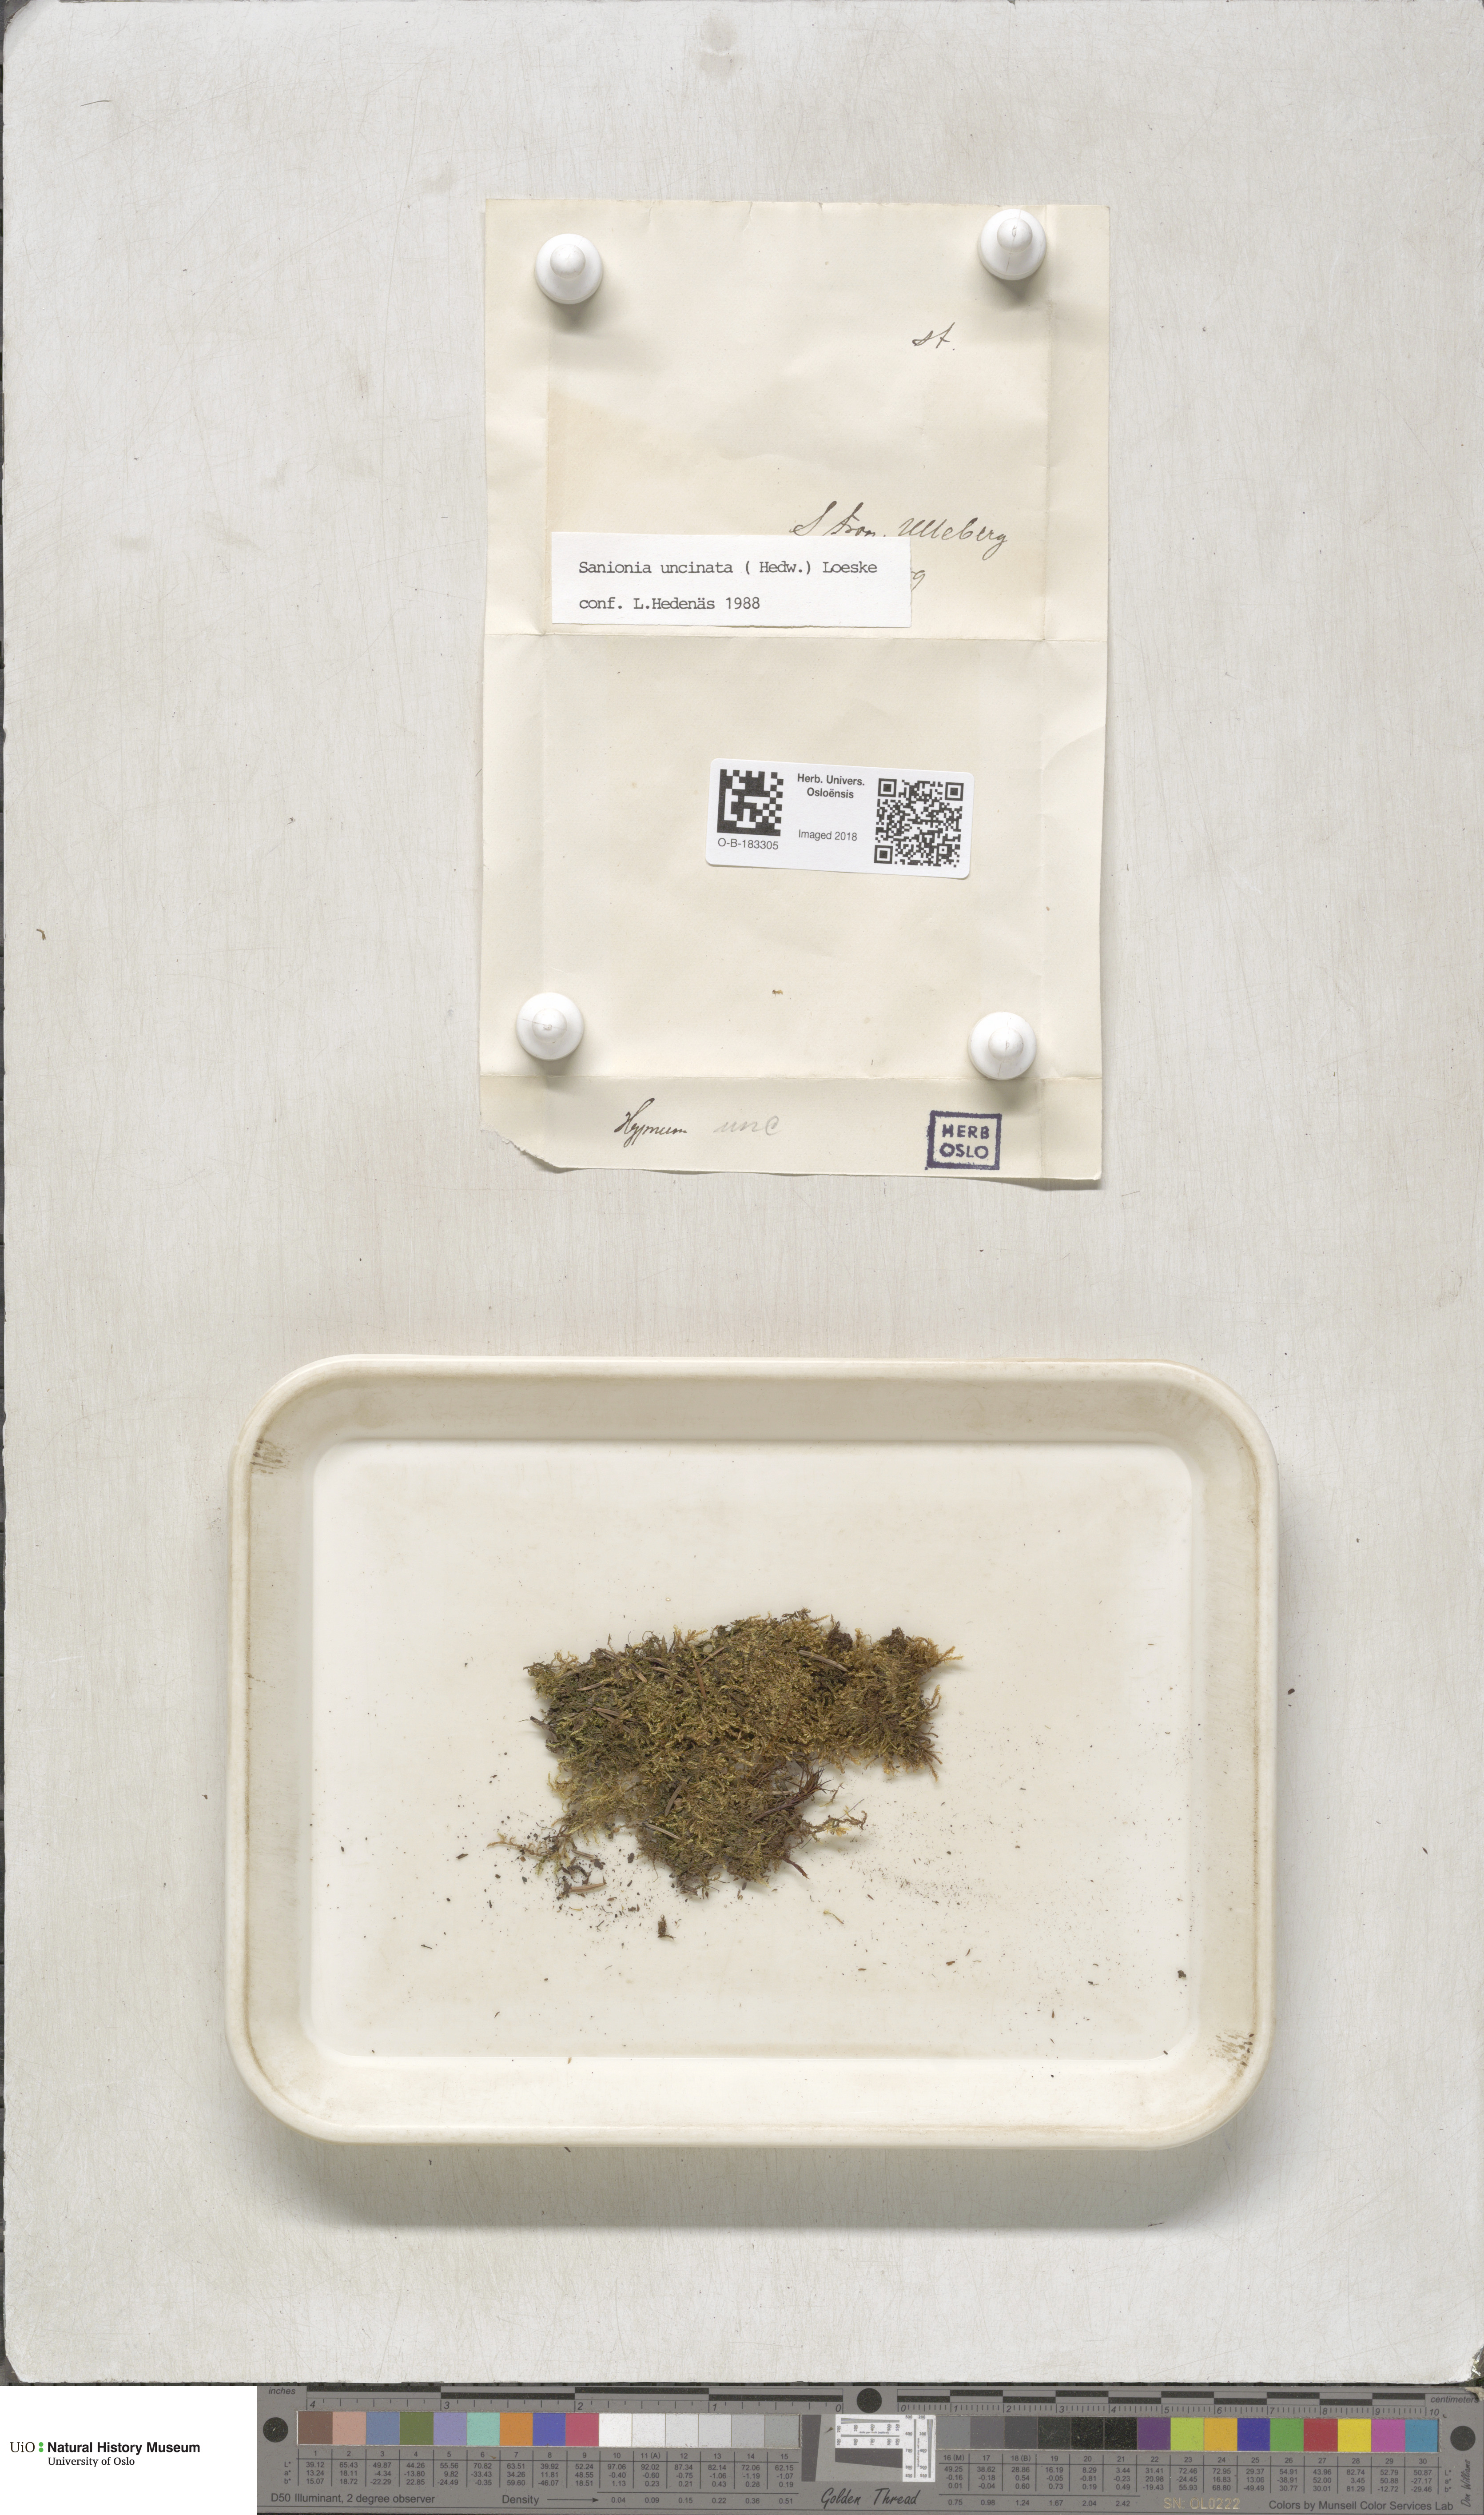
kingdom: Plantae
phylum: Bryophyta
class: Bryopsida
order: Hypnales
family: Scorpidiaceae
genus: Sanionia
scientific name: Sanionia uncinata
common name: Sickle moss
